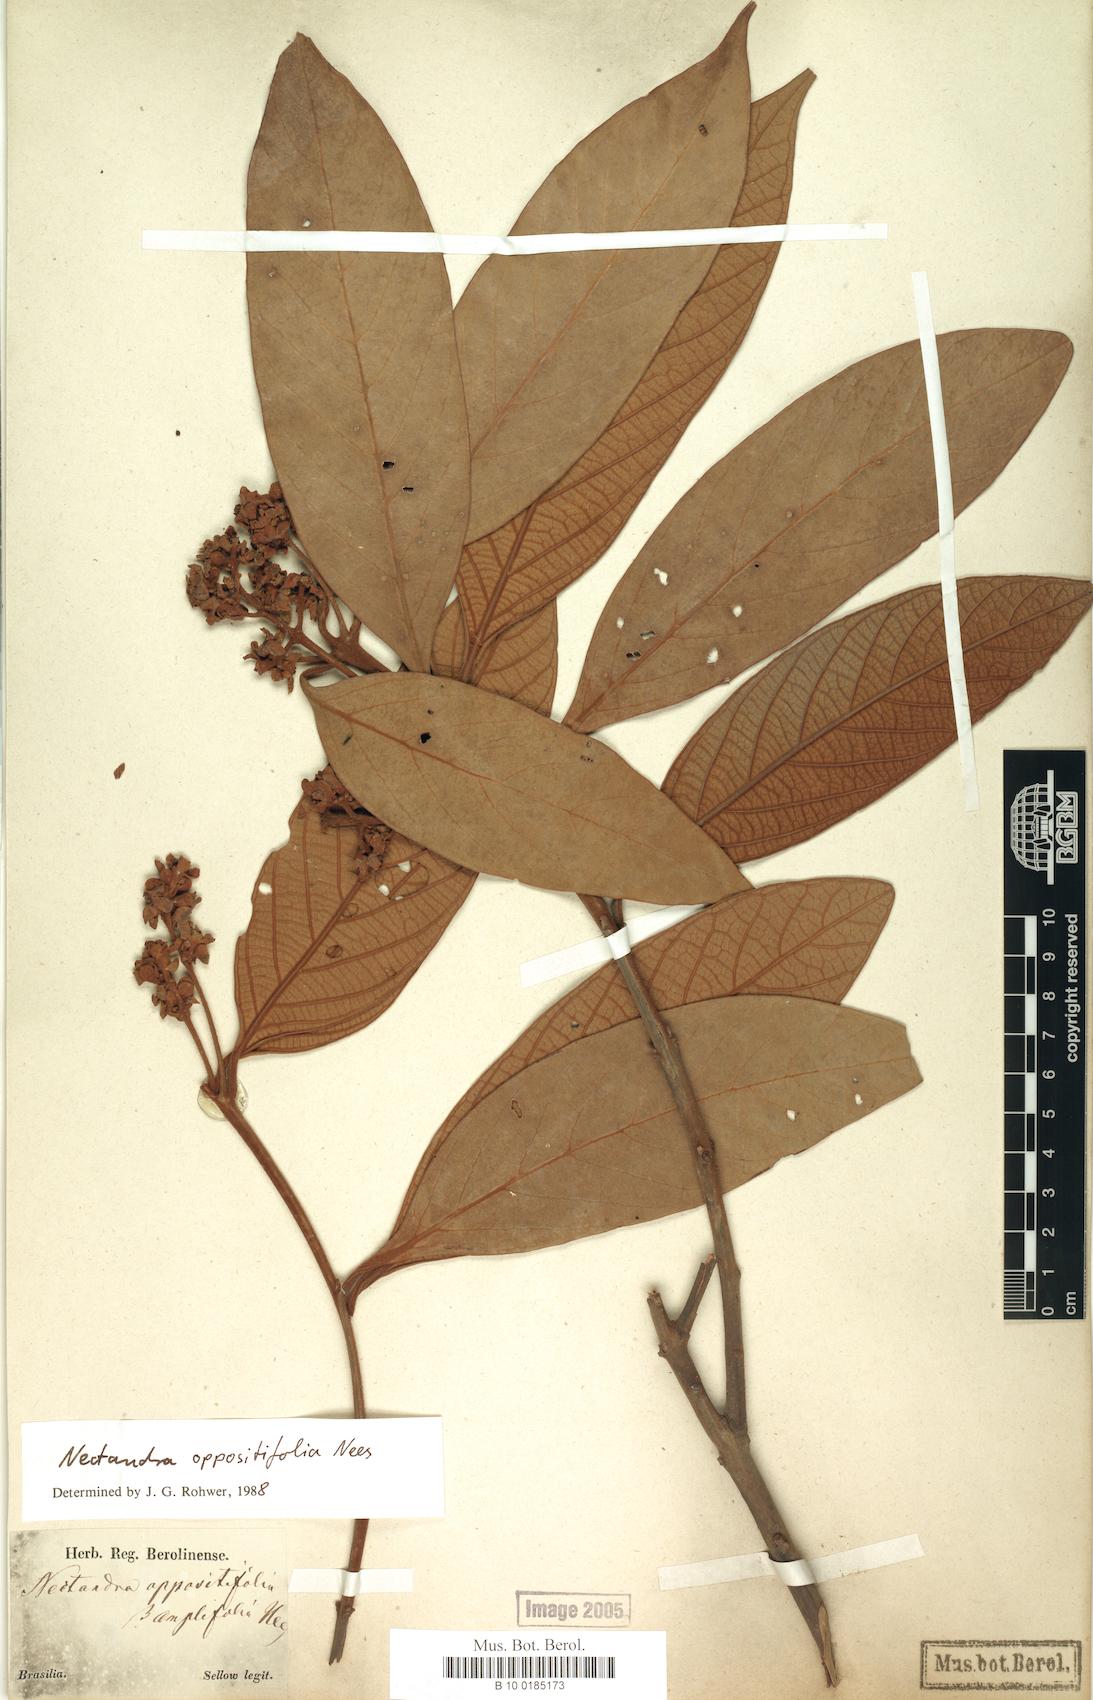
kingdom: Plantae
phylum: Tracheophyta
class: Magnoliopsida
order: Laurales
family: Lauraceae
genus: Nectandra
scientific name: Nectandra oppositifolia
